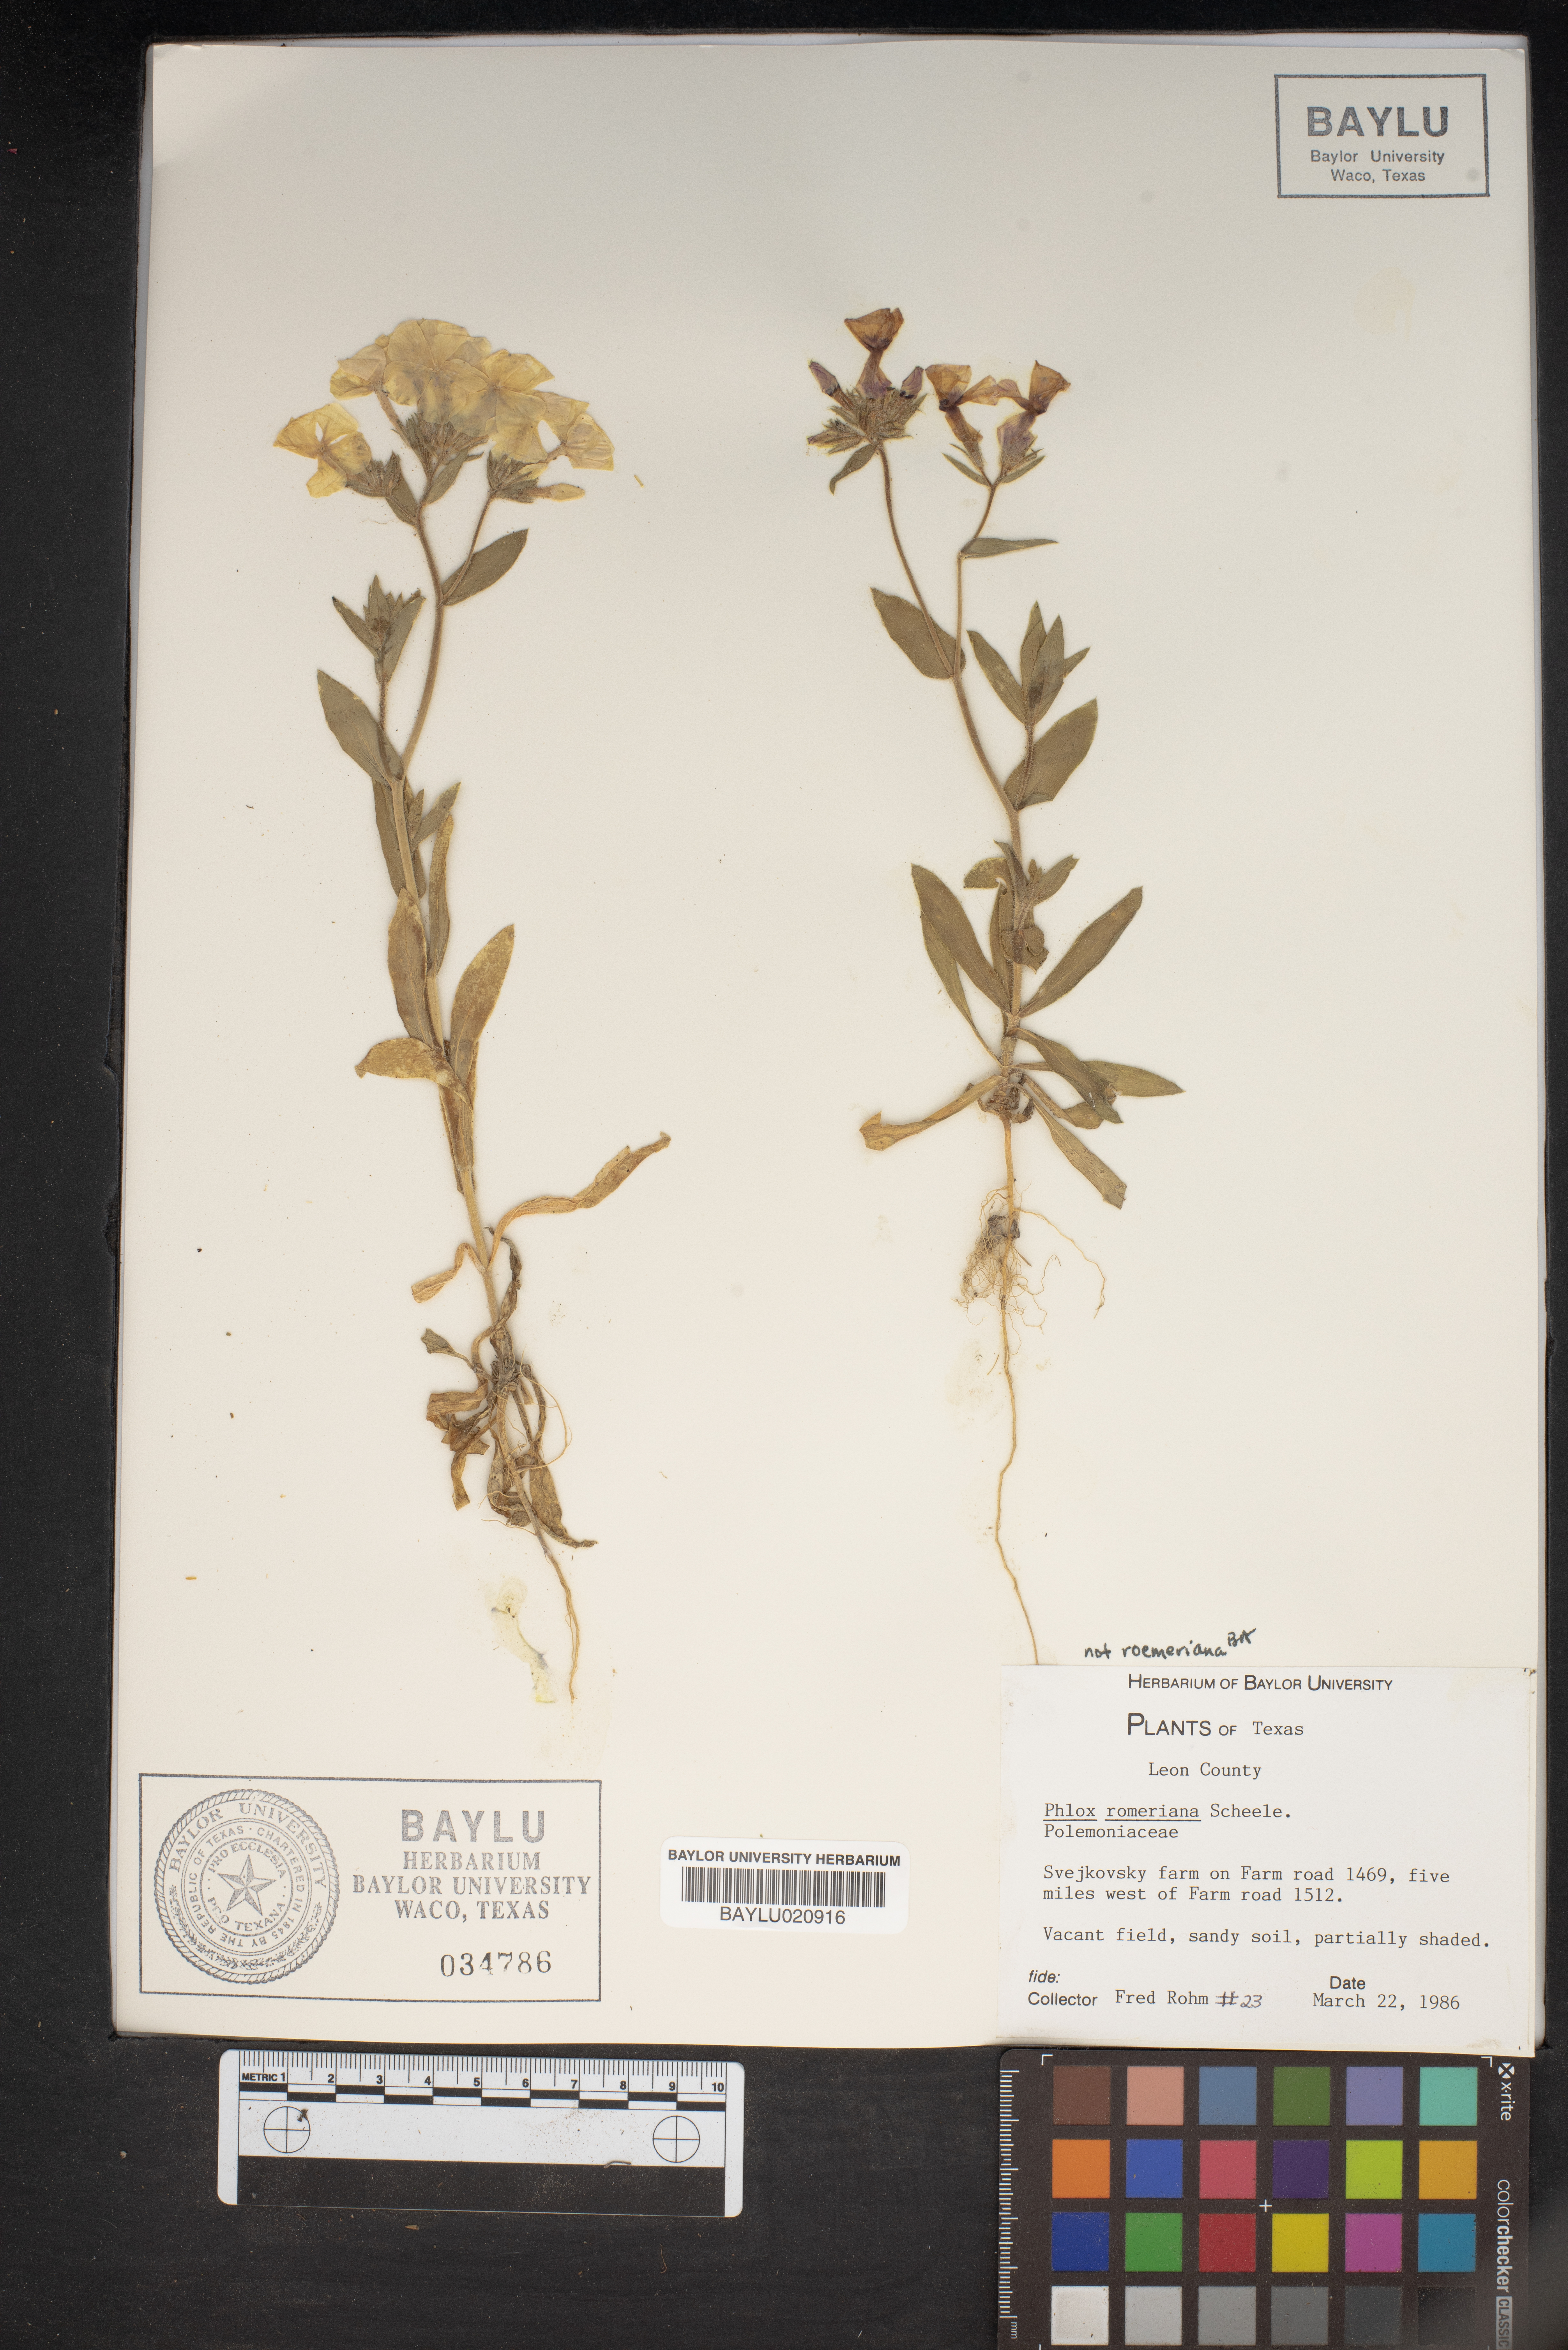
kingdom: Plantae
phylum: Tracheophyta
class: Magnoliopsida
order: Ericales
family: Polemoniaceae
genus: Phlox
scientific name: Phlox roemeriana
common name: Roemer's phlox
